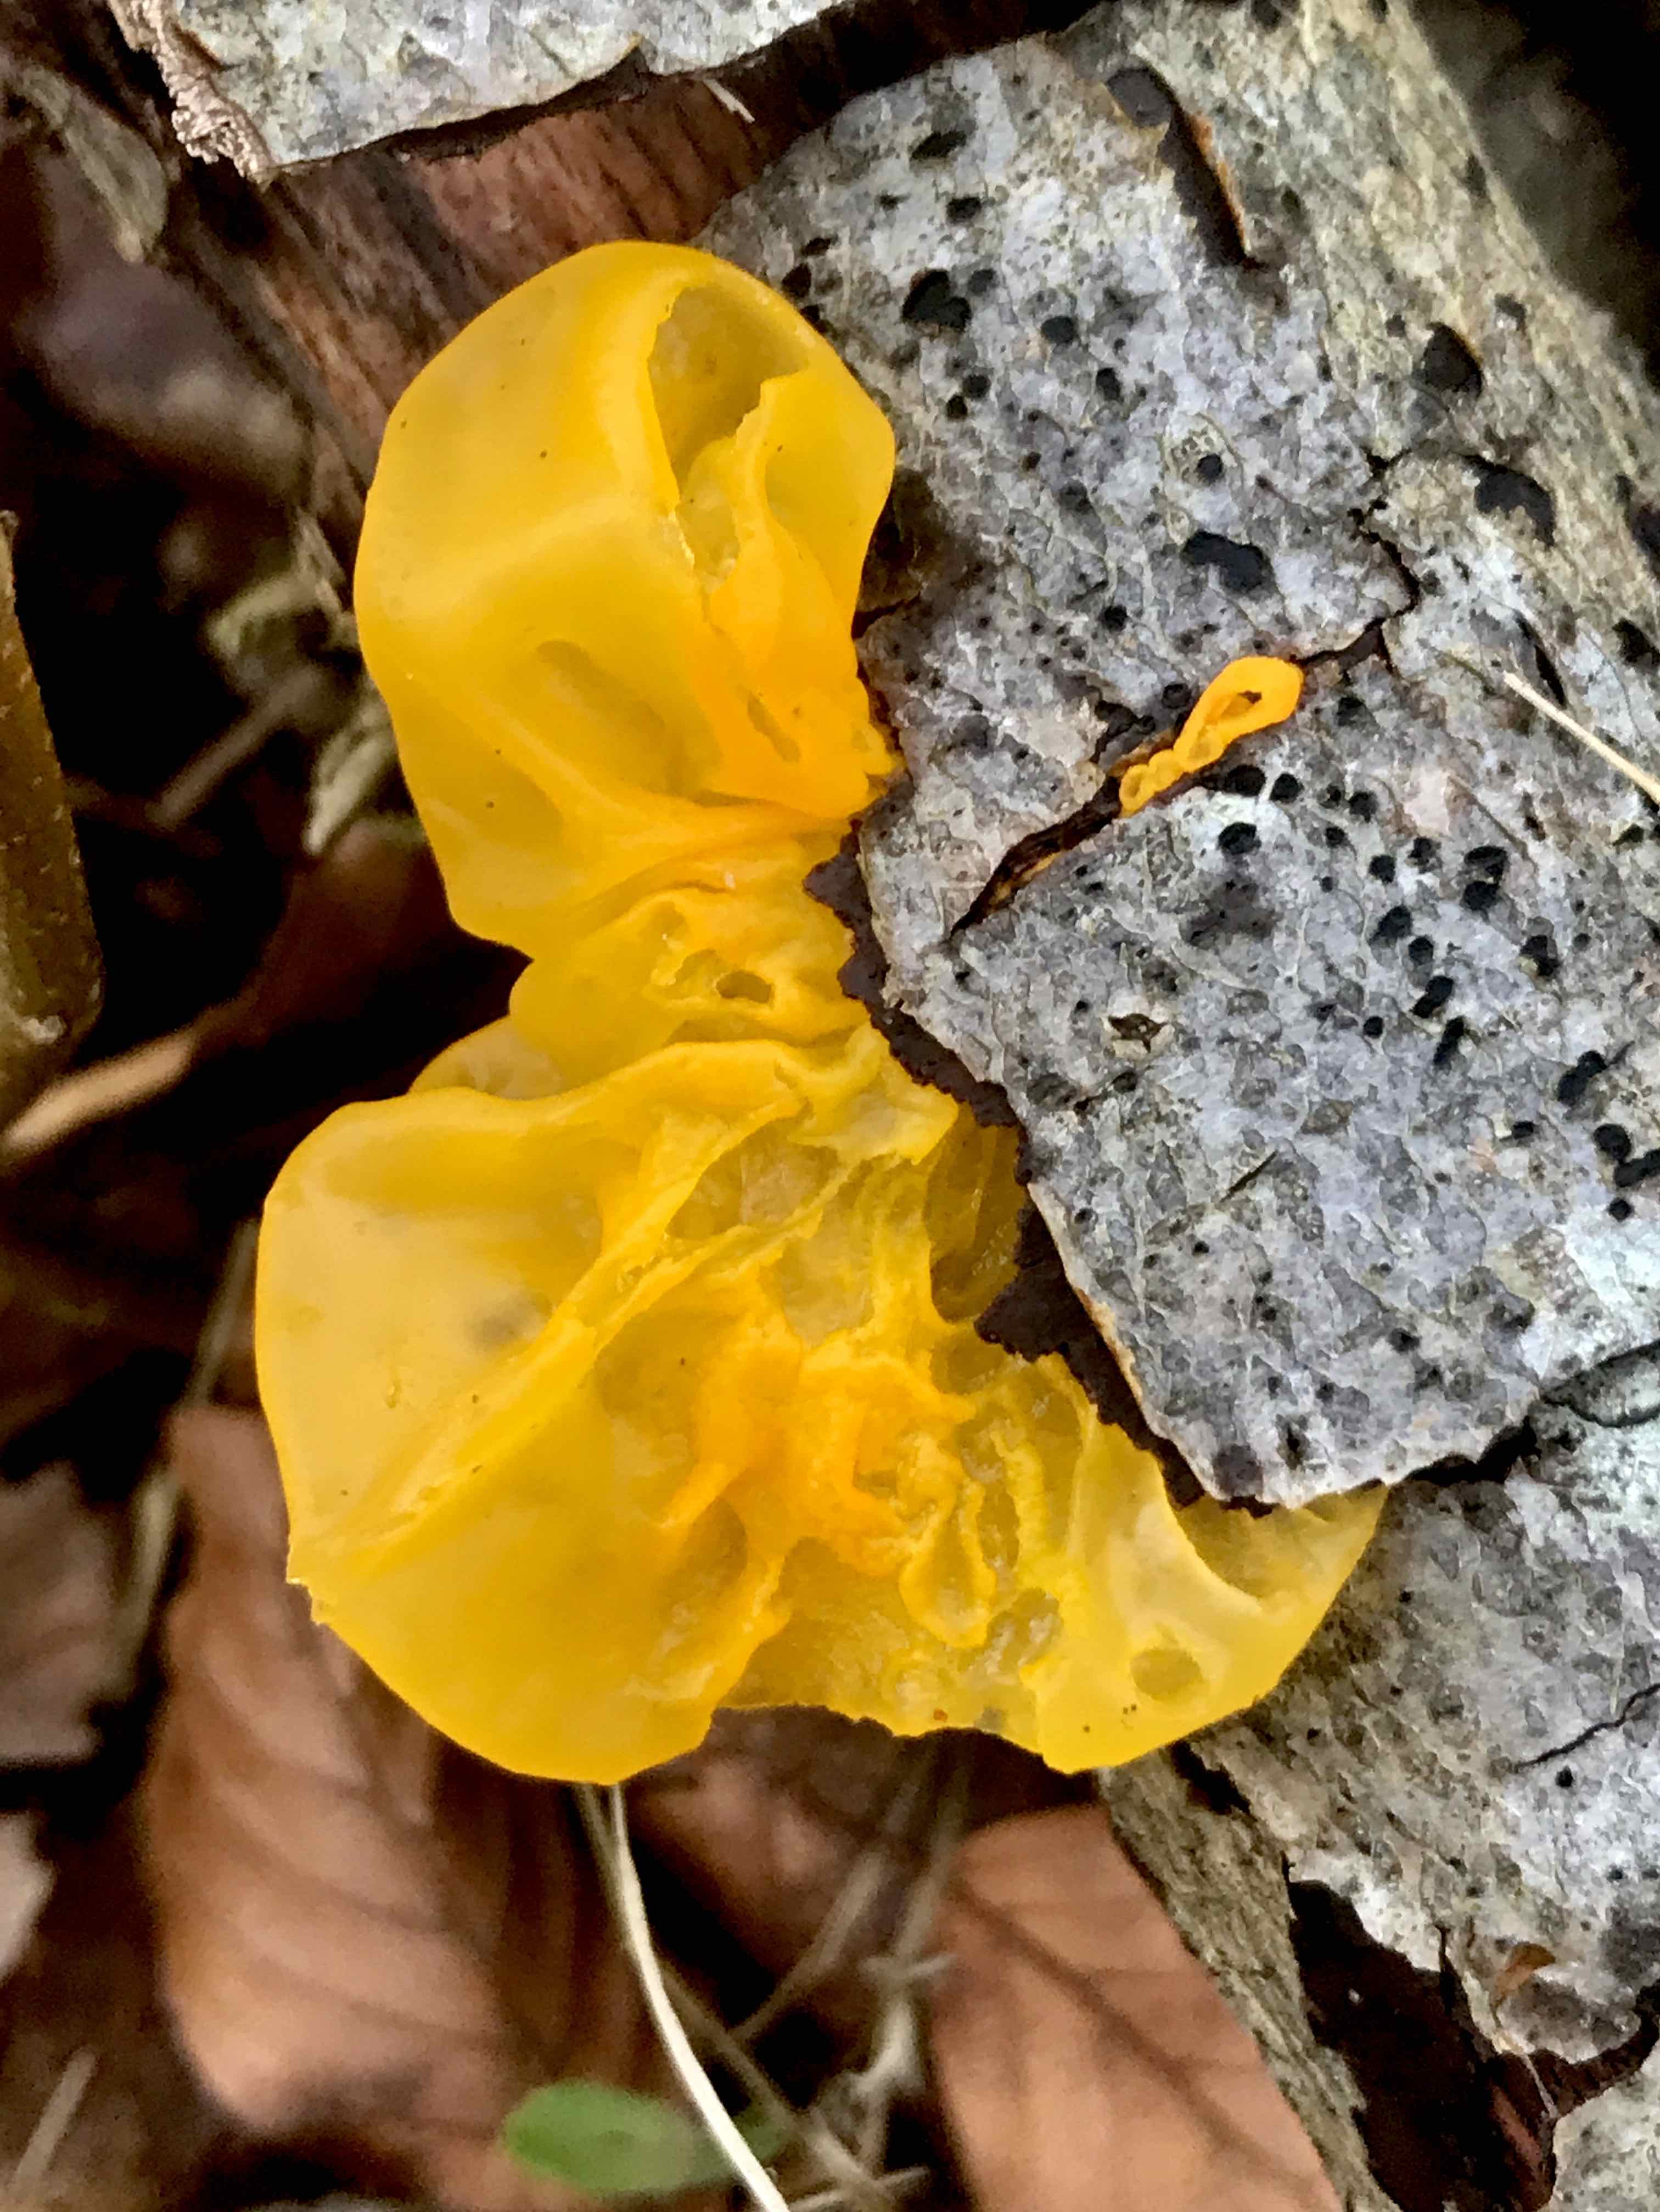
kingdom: Fungi
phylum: Basidiomycota
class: Tremellomycetes
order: Tremellales
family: Tremellaceae
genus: Tremella
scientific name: Tremella mesenterica
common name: gul bævresvamp
